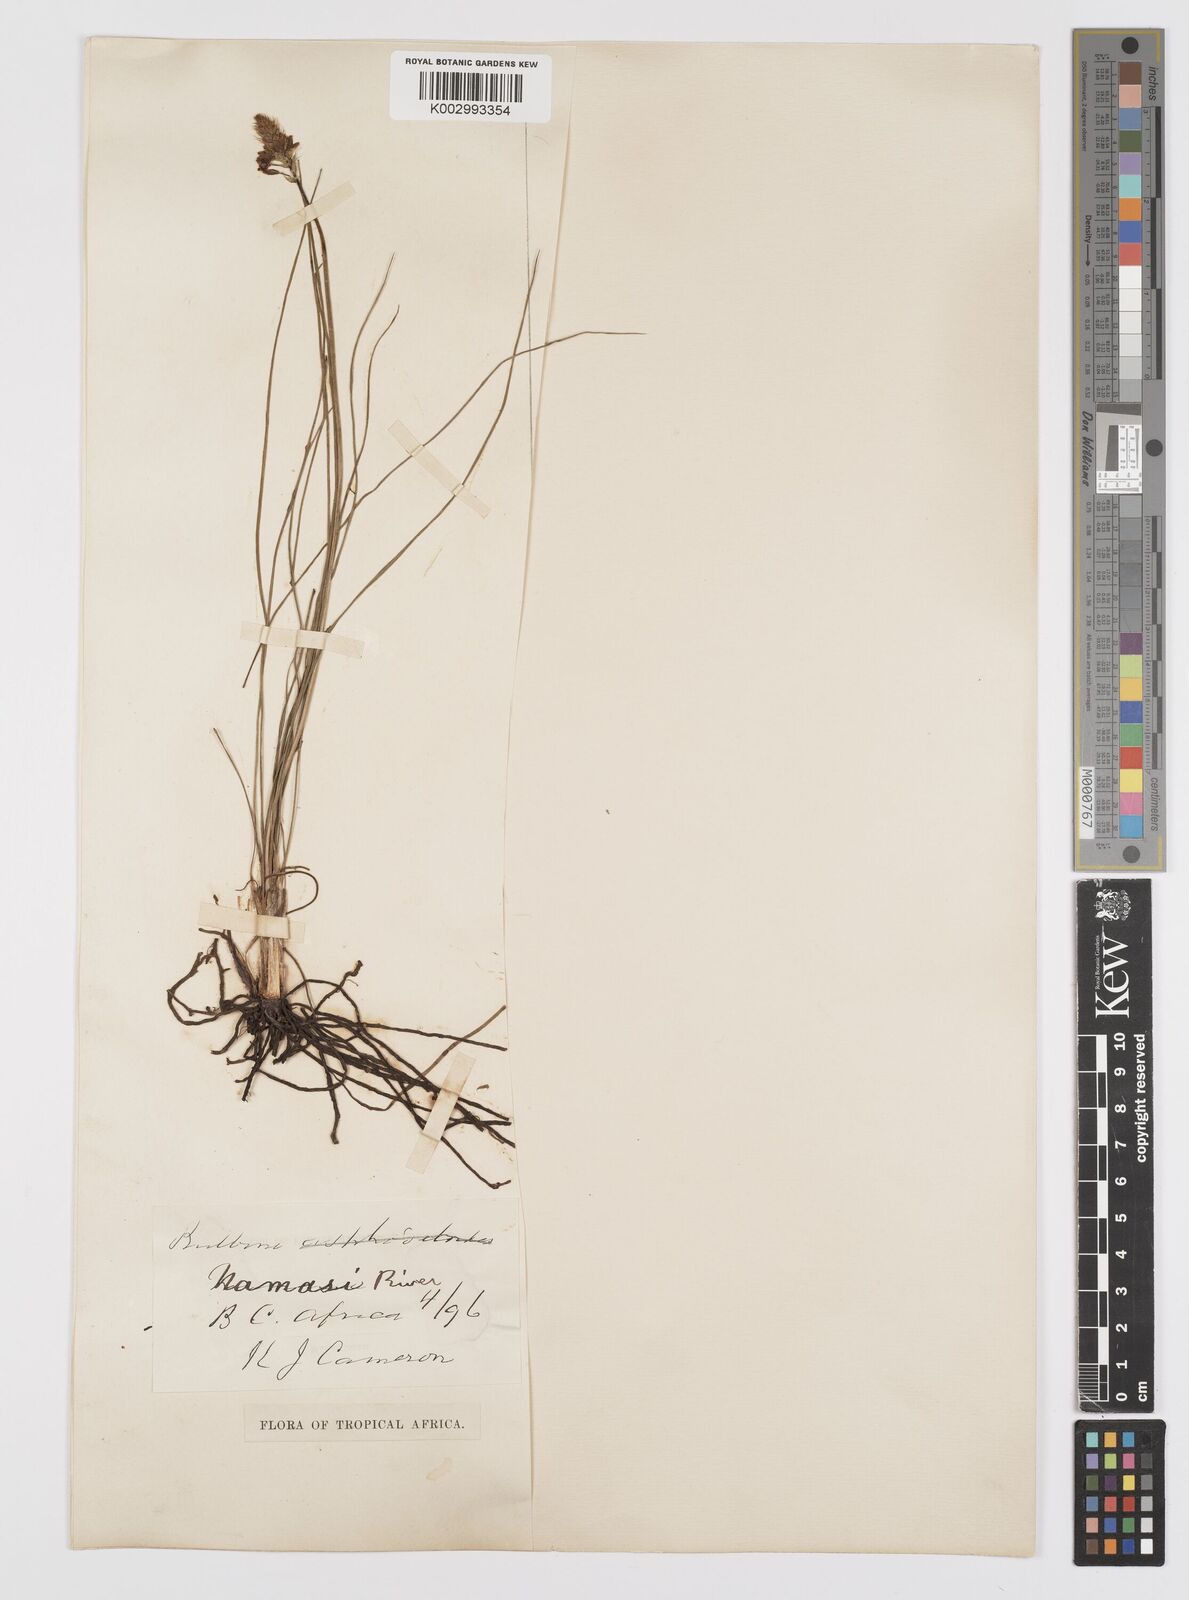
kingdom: Plantae
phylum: Tracheophyta
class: Liliopsida
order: Asparagales
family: Asphodelaceae
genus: Bulbine
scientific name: Bulbine abyssinica
